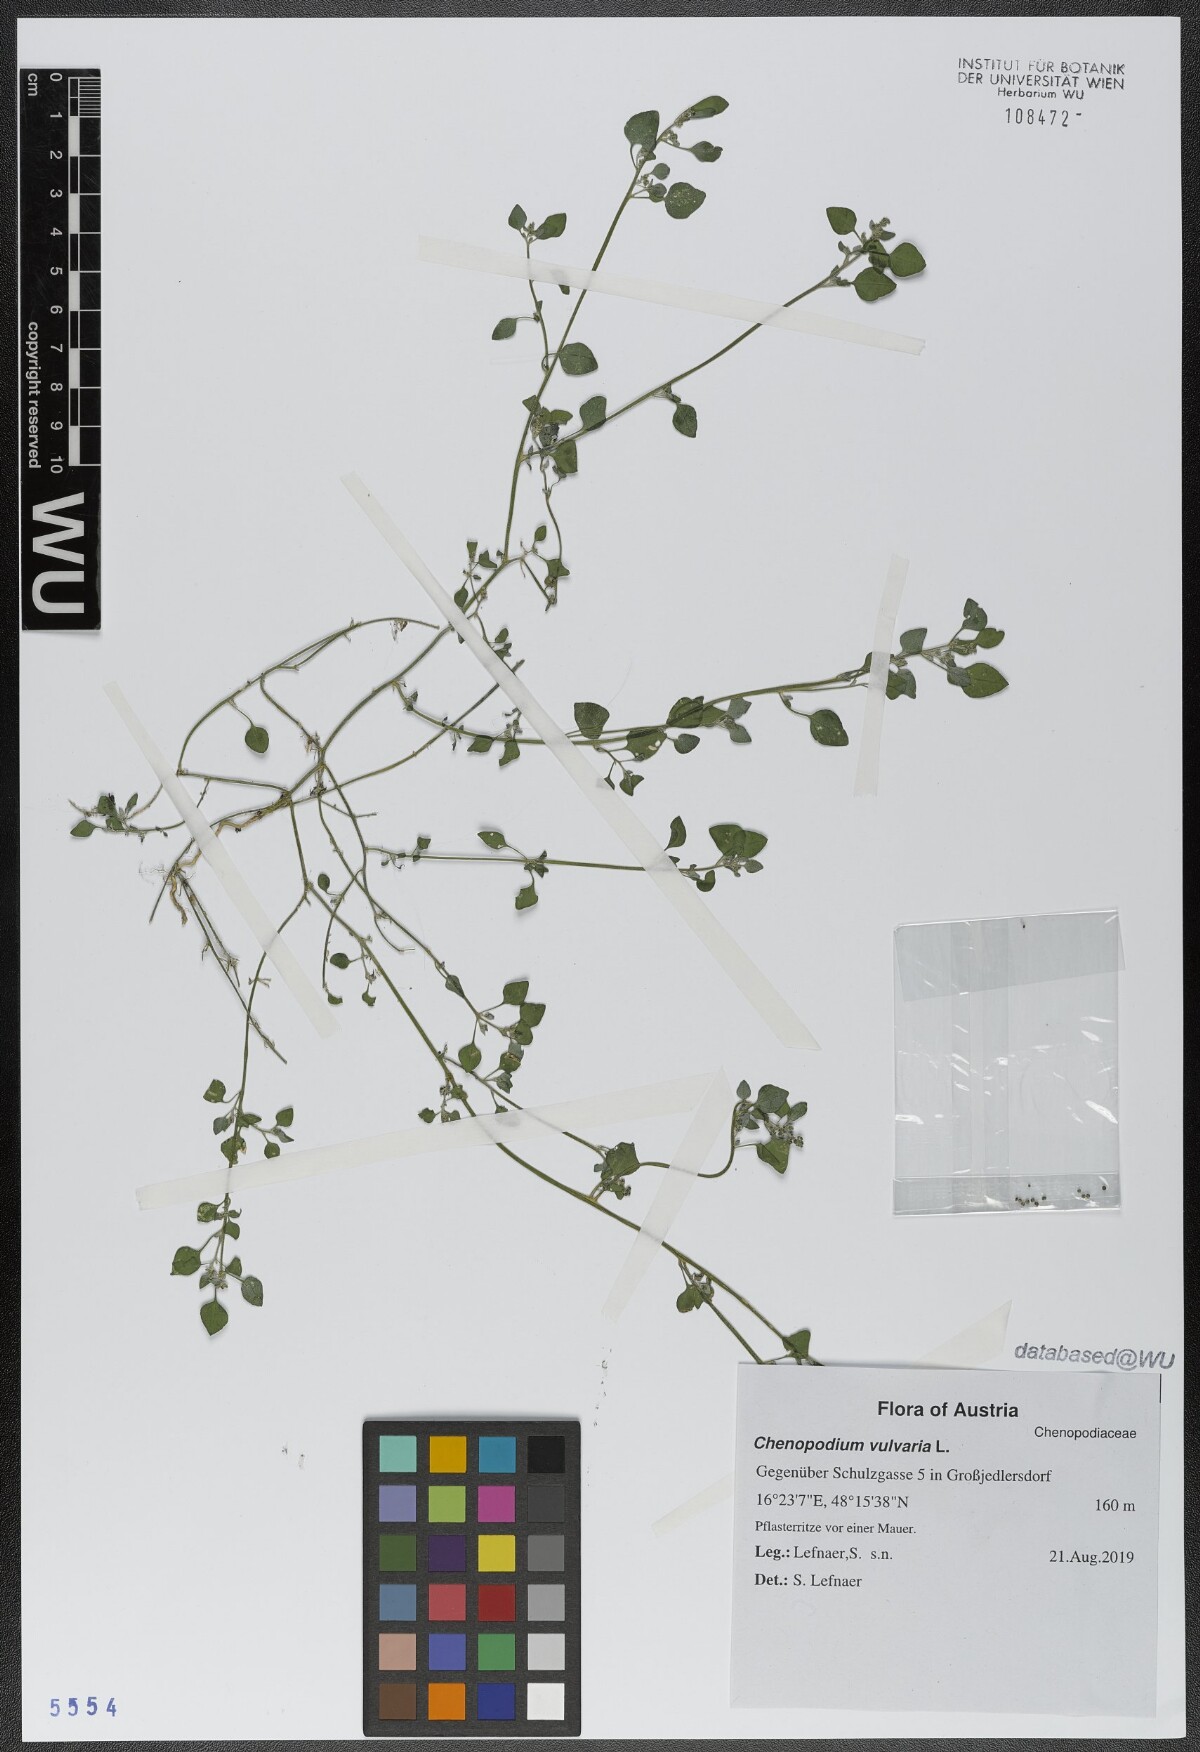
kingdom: Plantae
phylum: Tracheophyta
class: Magnoliopsida
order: Caryophyllales
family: Amaranthaceae
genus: Chenopodium
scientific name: Chenopodium vulvaria
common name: Stinking goosefoot
